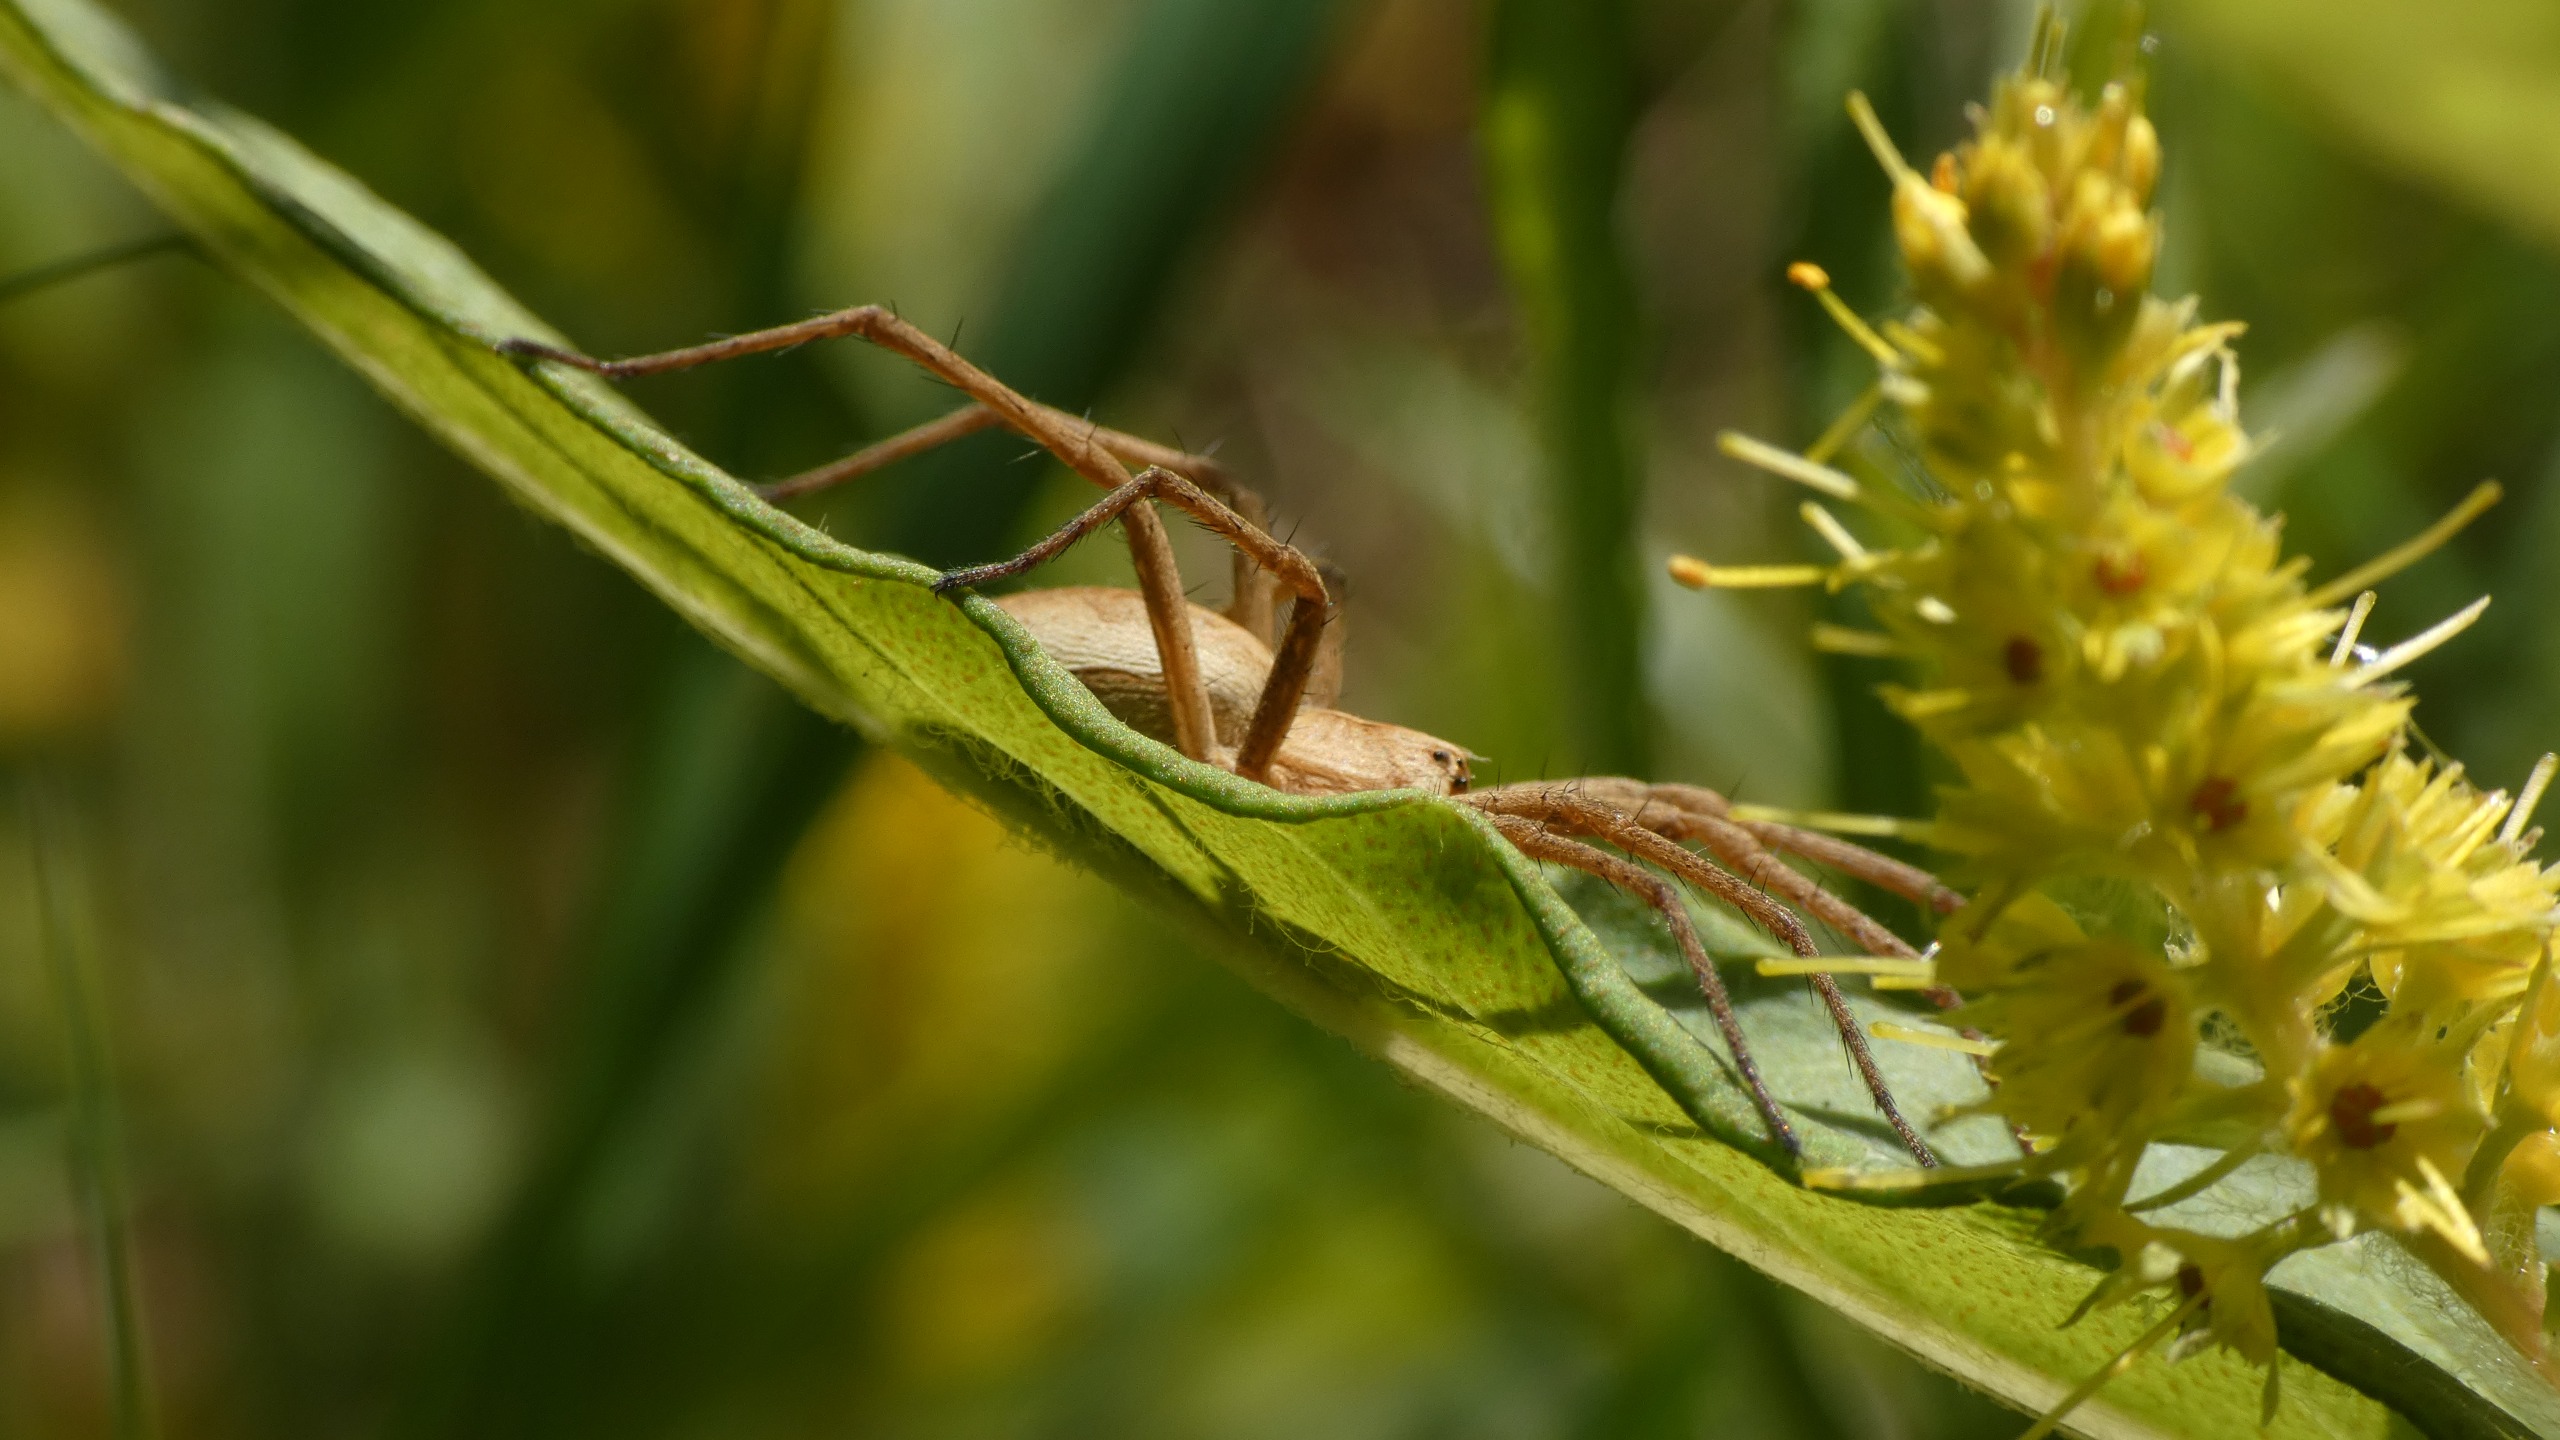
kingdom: Animalia
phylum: Arthropoda
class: Arachnida
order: Araneae
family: Pisauridae
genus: Pisaura
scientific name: Pisaura mirabilis
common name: Almindelig rovedderkop
